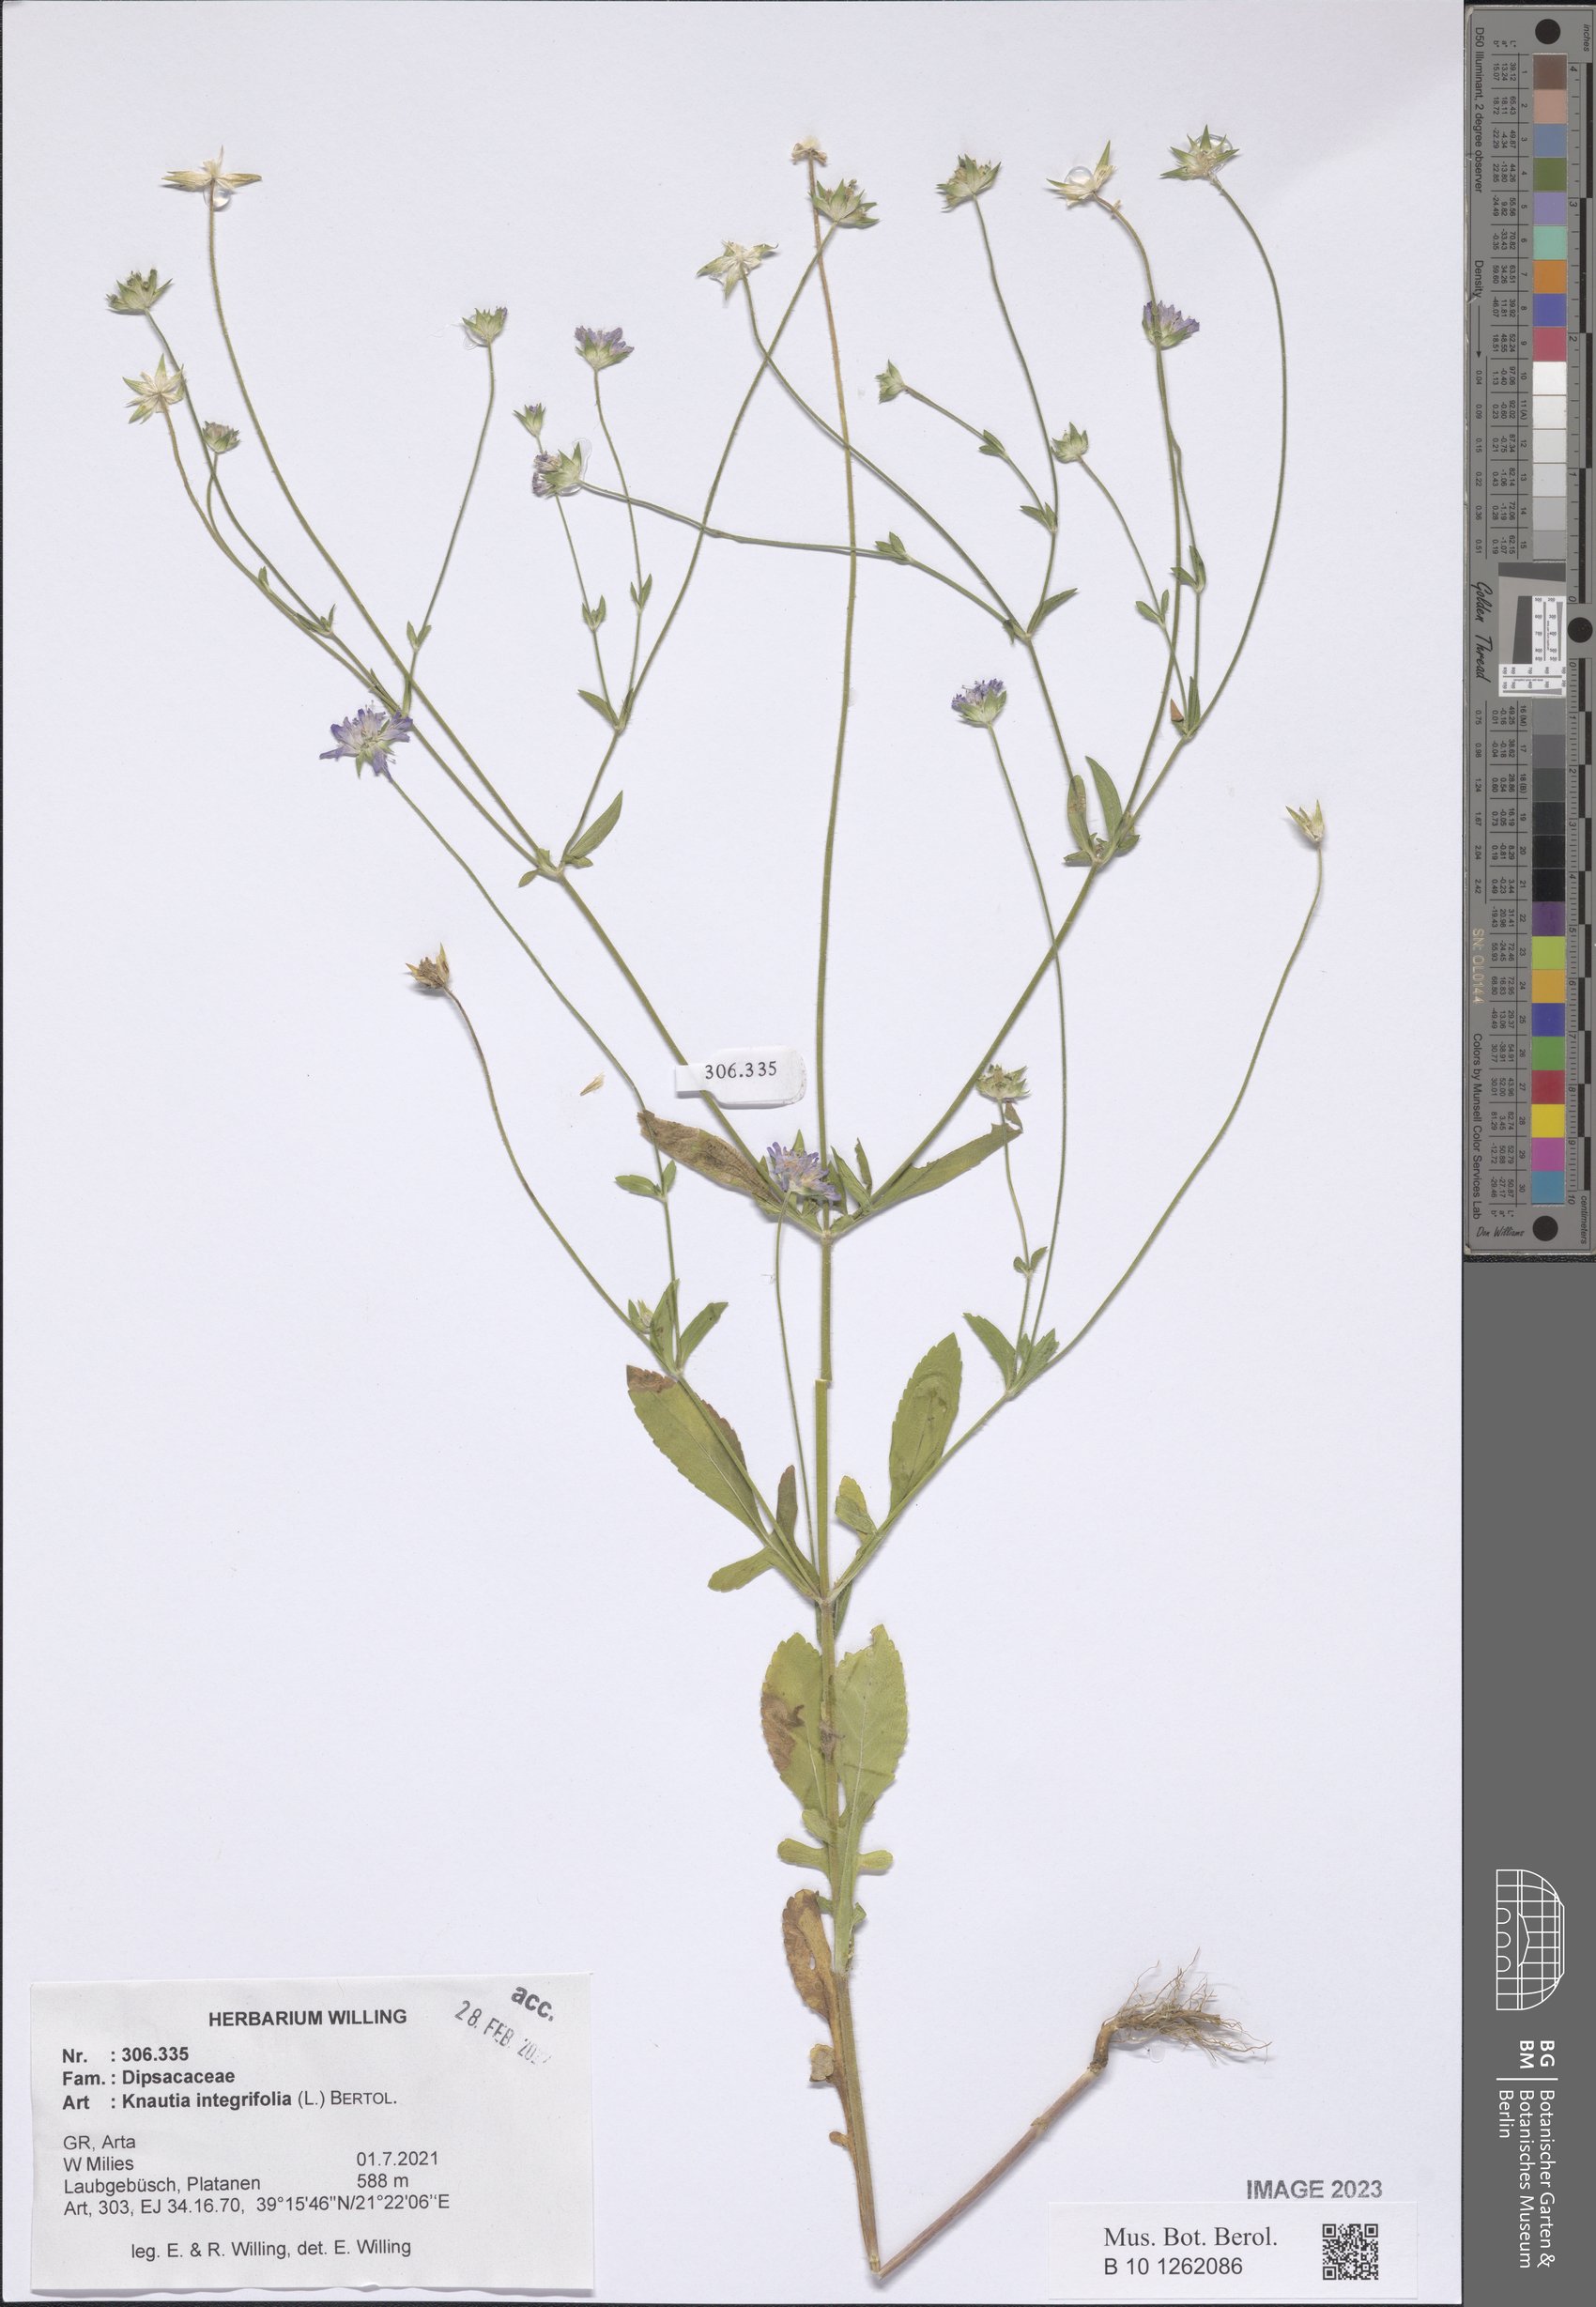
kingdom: Plantae
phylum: Tracheophyta
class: Magnoliopsida
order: Dipsacales
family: Caprifoliaceae
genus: Knautia
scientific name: Knautia integrifolia
